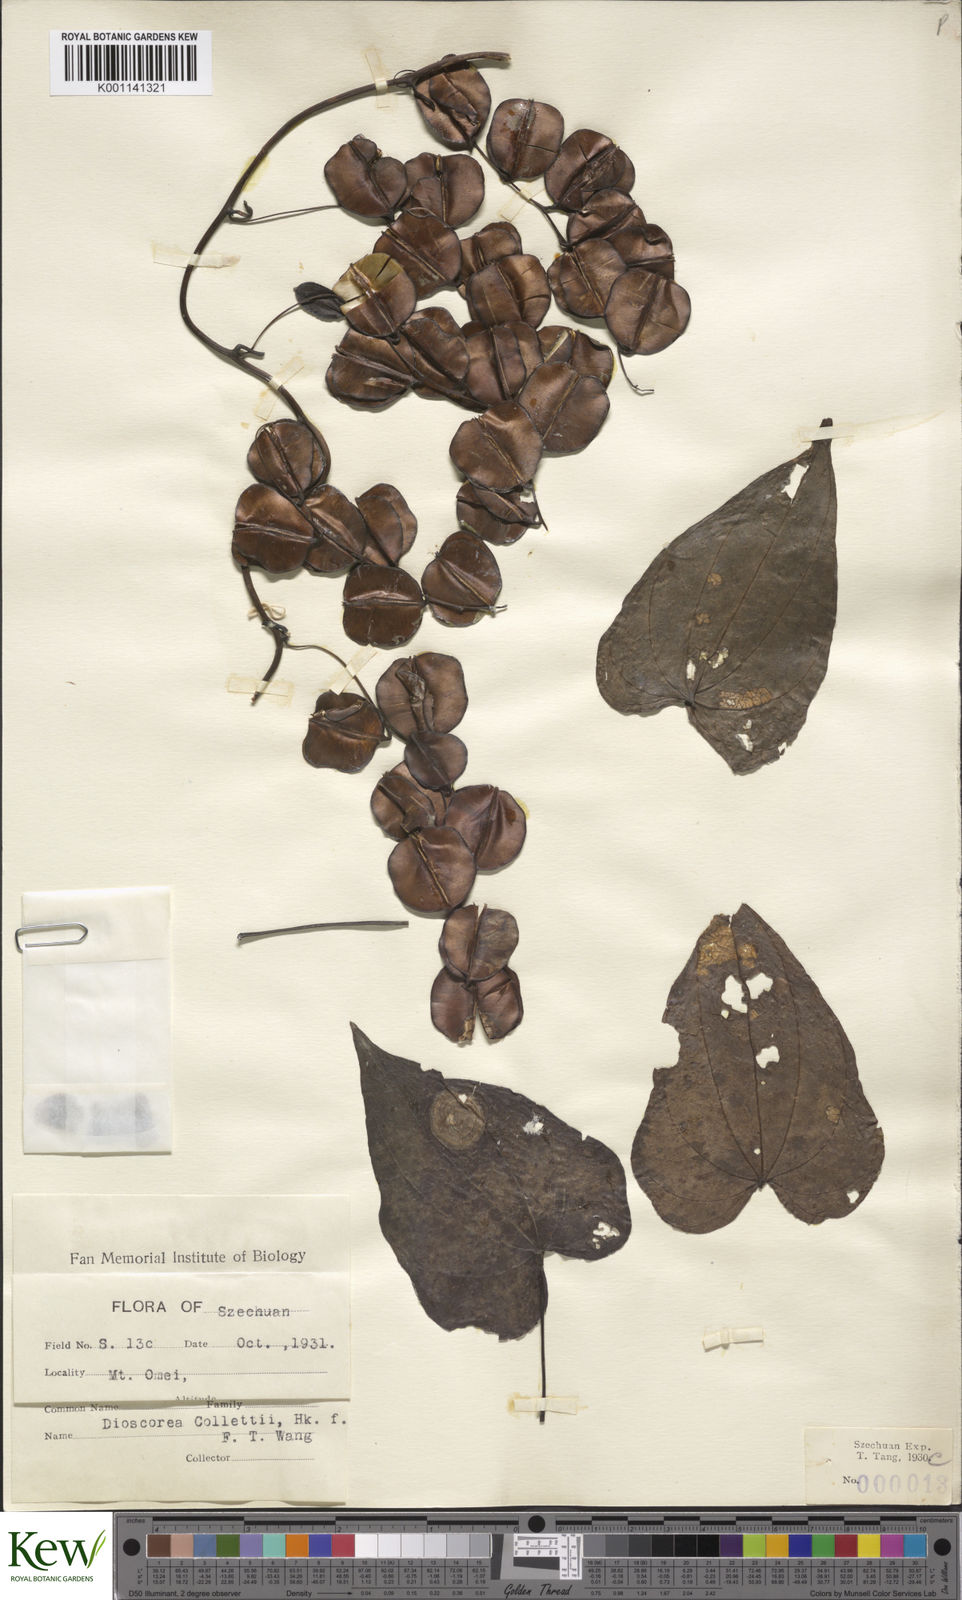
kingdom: Plantae
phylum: Tracheophyta
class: Liliopsida
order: Dioscoreales
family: Dioscoreaceae
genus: Dioscorea
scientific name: Dioscorea collettii
